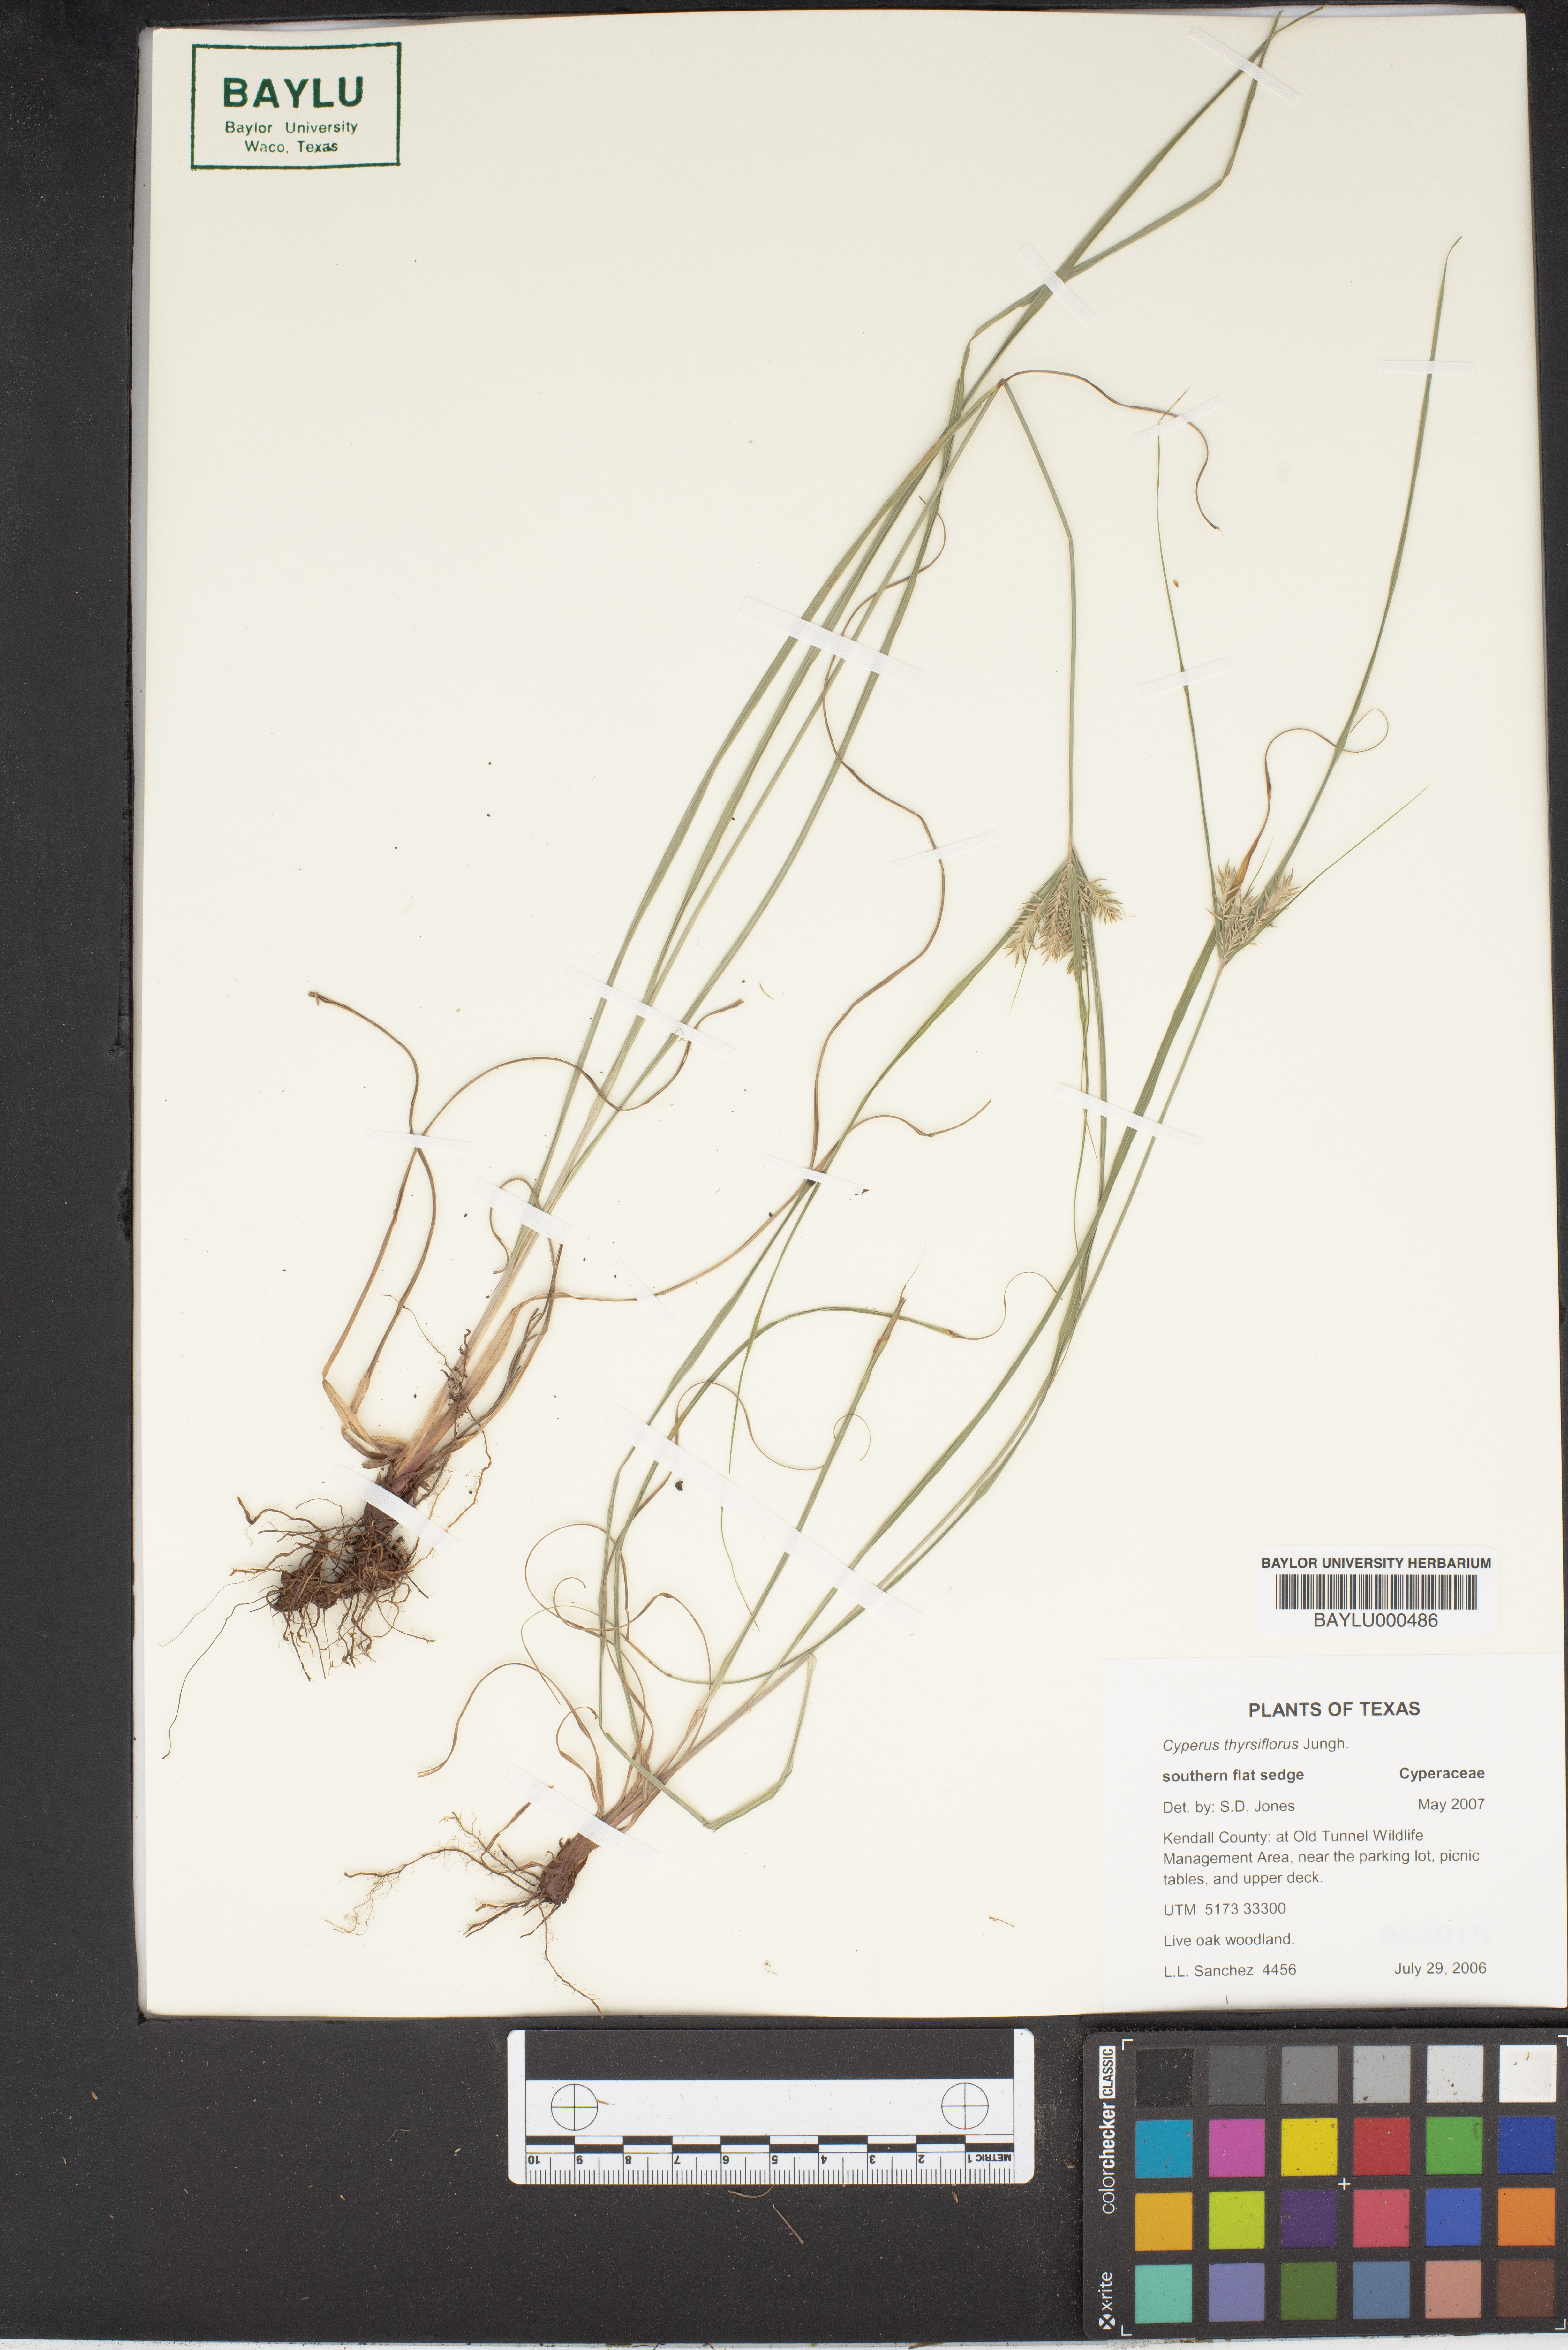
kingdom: Plantae
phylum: Tracheophyta
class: Liliopsida
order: Poales
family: Cyperaceae
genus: Cyperus
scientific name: Cyperus thyrsiflorus
